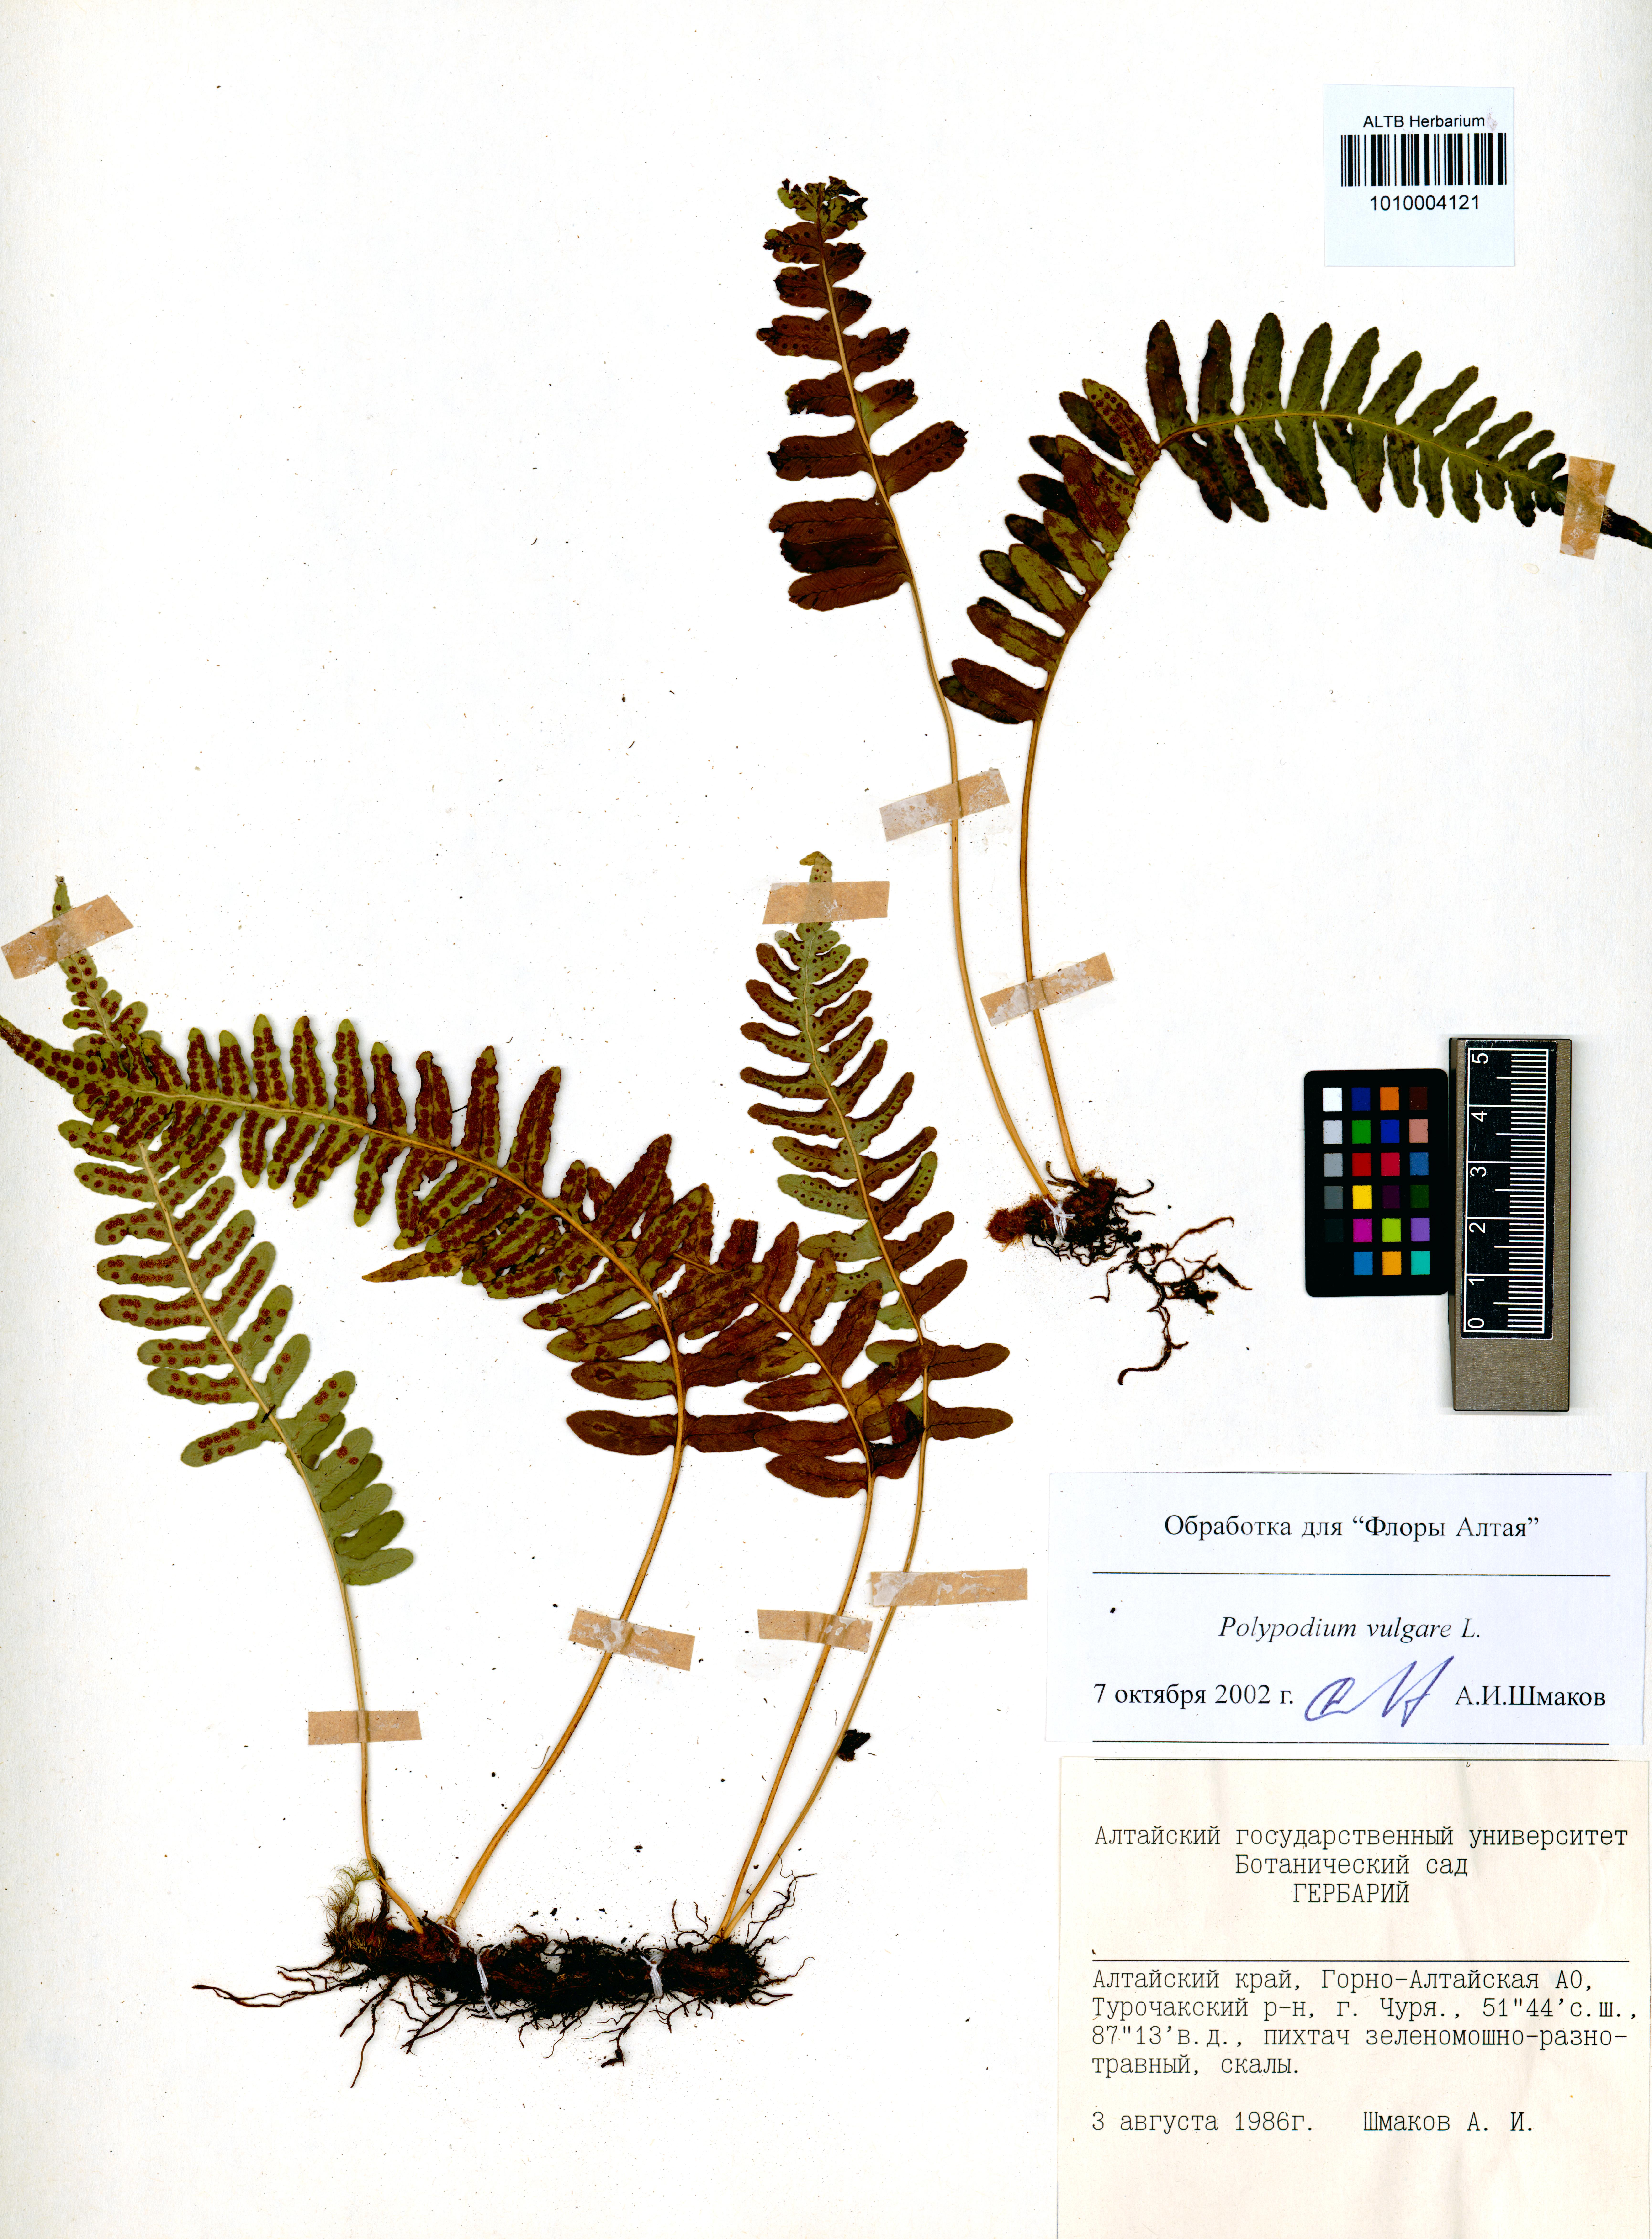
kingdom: Plantae
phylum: Tracheophyta
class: Polypodiopsida
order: Polypodiales
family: Polypodiaceae
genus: Polypodium
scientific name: Polypodium vulgare
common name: Common polypody
